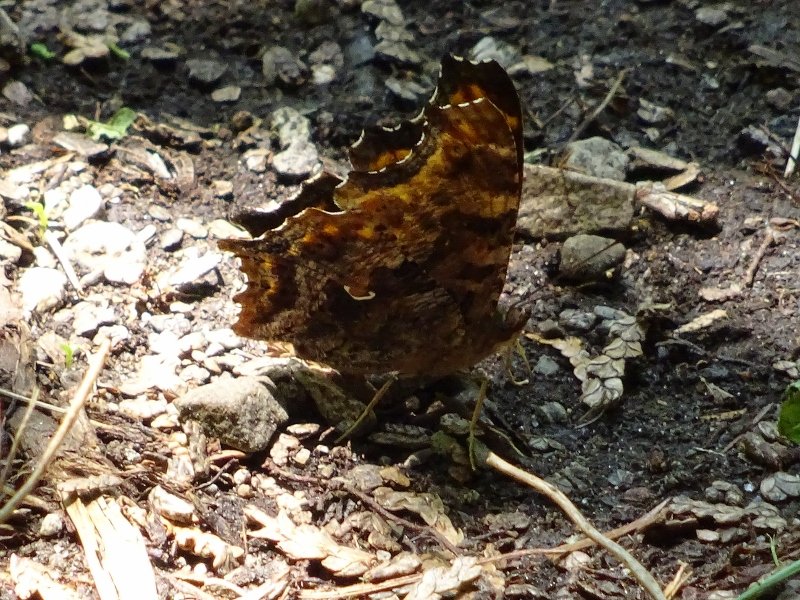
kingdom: Animalia
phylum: Arthropoda
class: Insecta
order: Lepidoptera
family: Nymphalidae
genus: Polygonia
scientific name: Polygonia comma
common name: Eastern Comma
